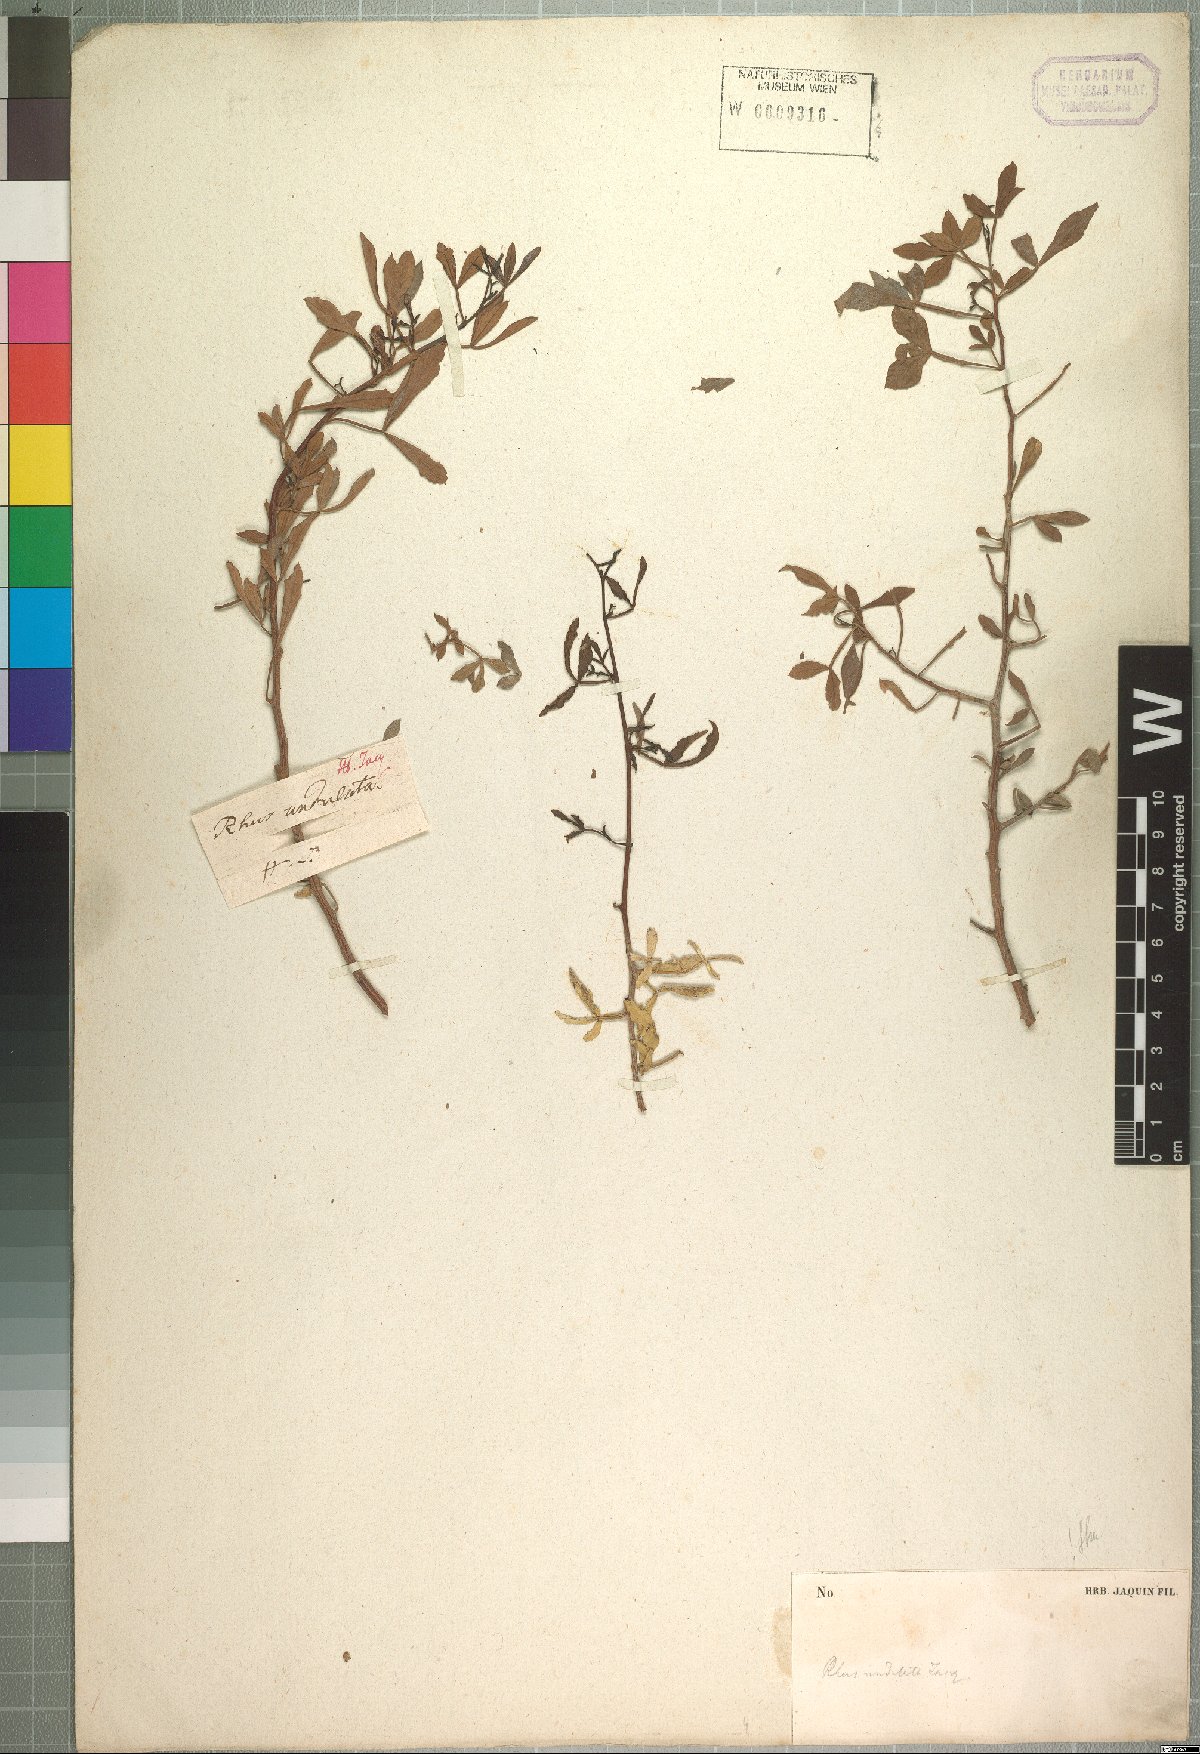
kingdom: Plantae
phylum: Tracheophyta
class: Magnoliopsida
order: Sapindales
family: Anacardiaceae
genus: Searsia
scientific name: Searsia undulata
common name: Namaqua kunibush
